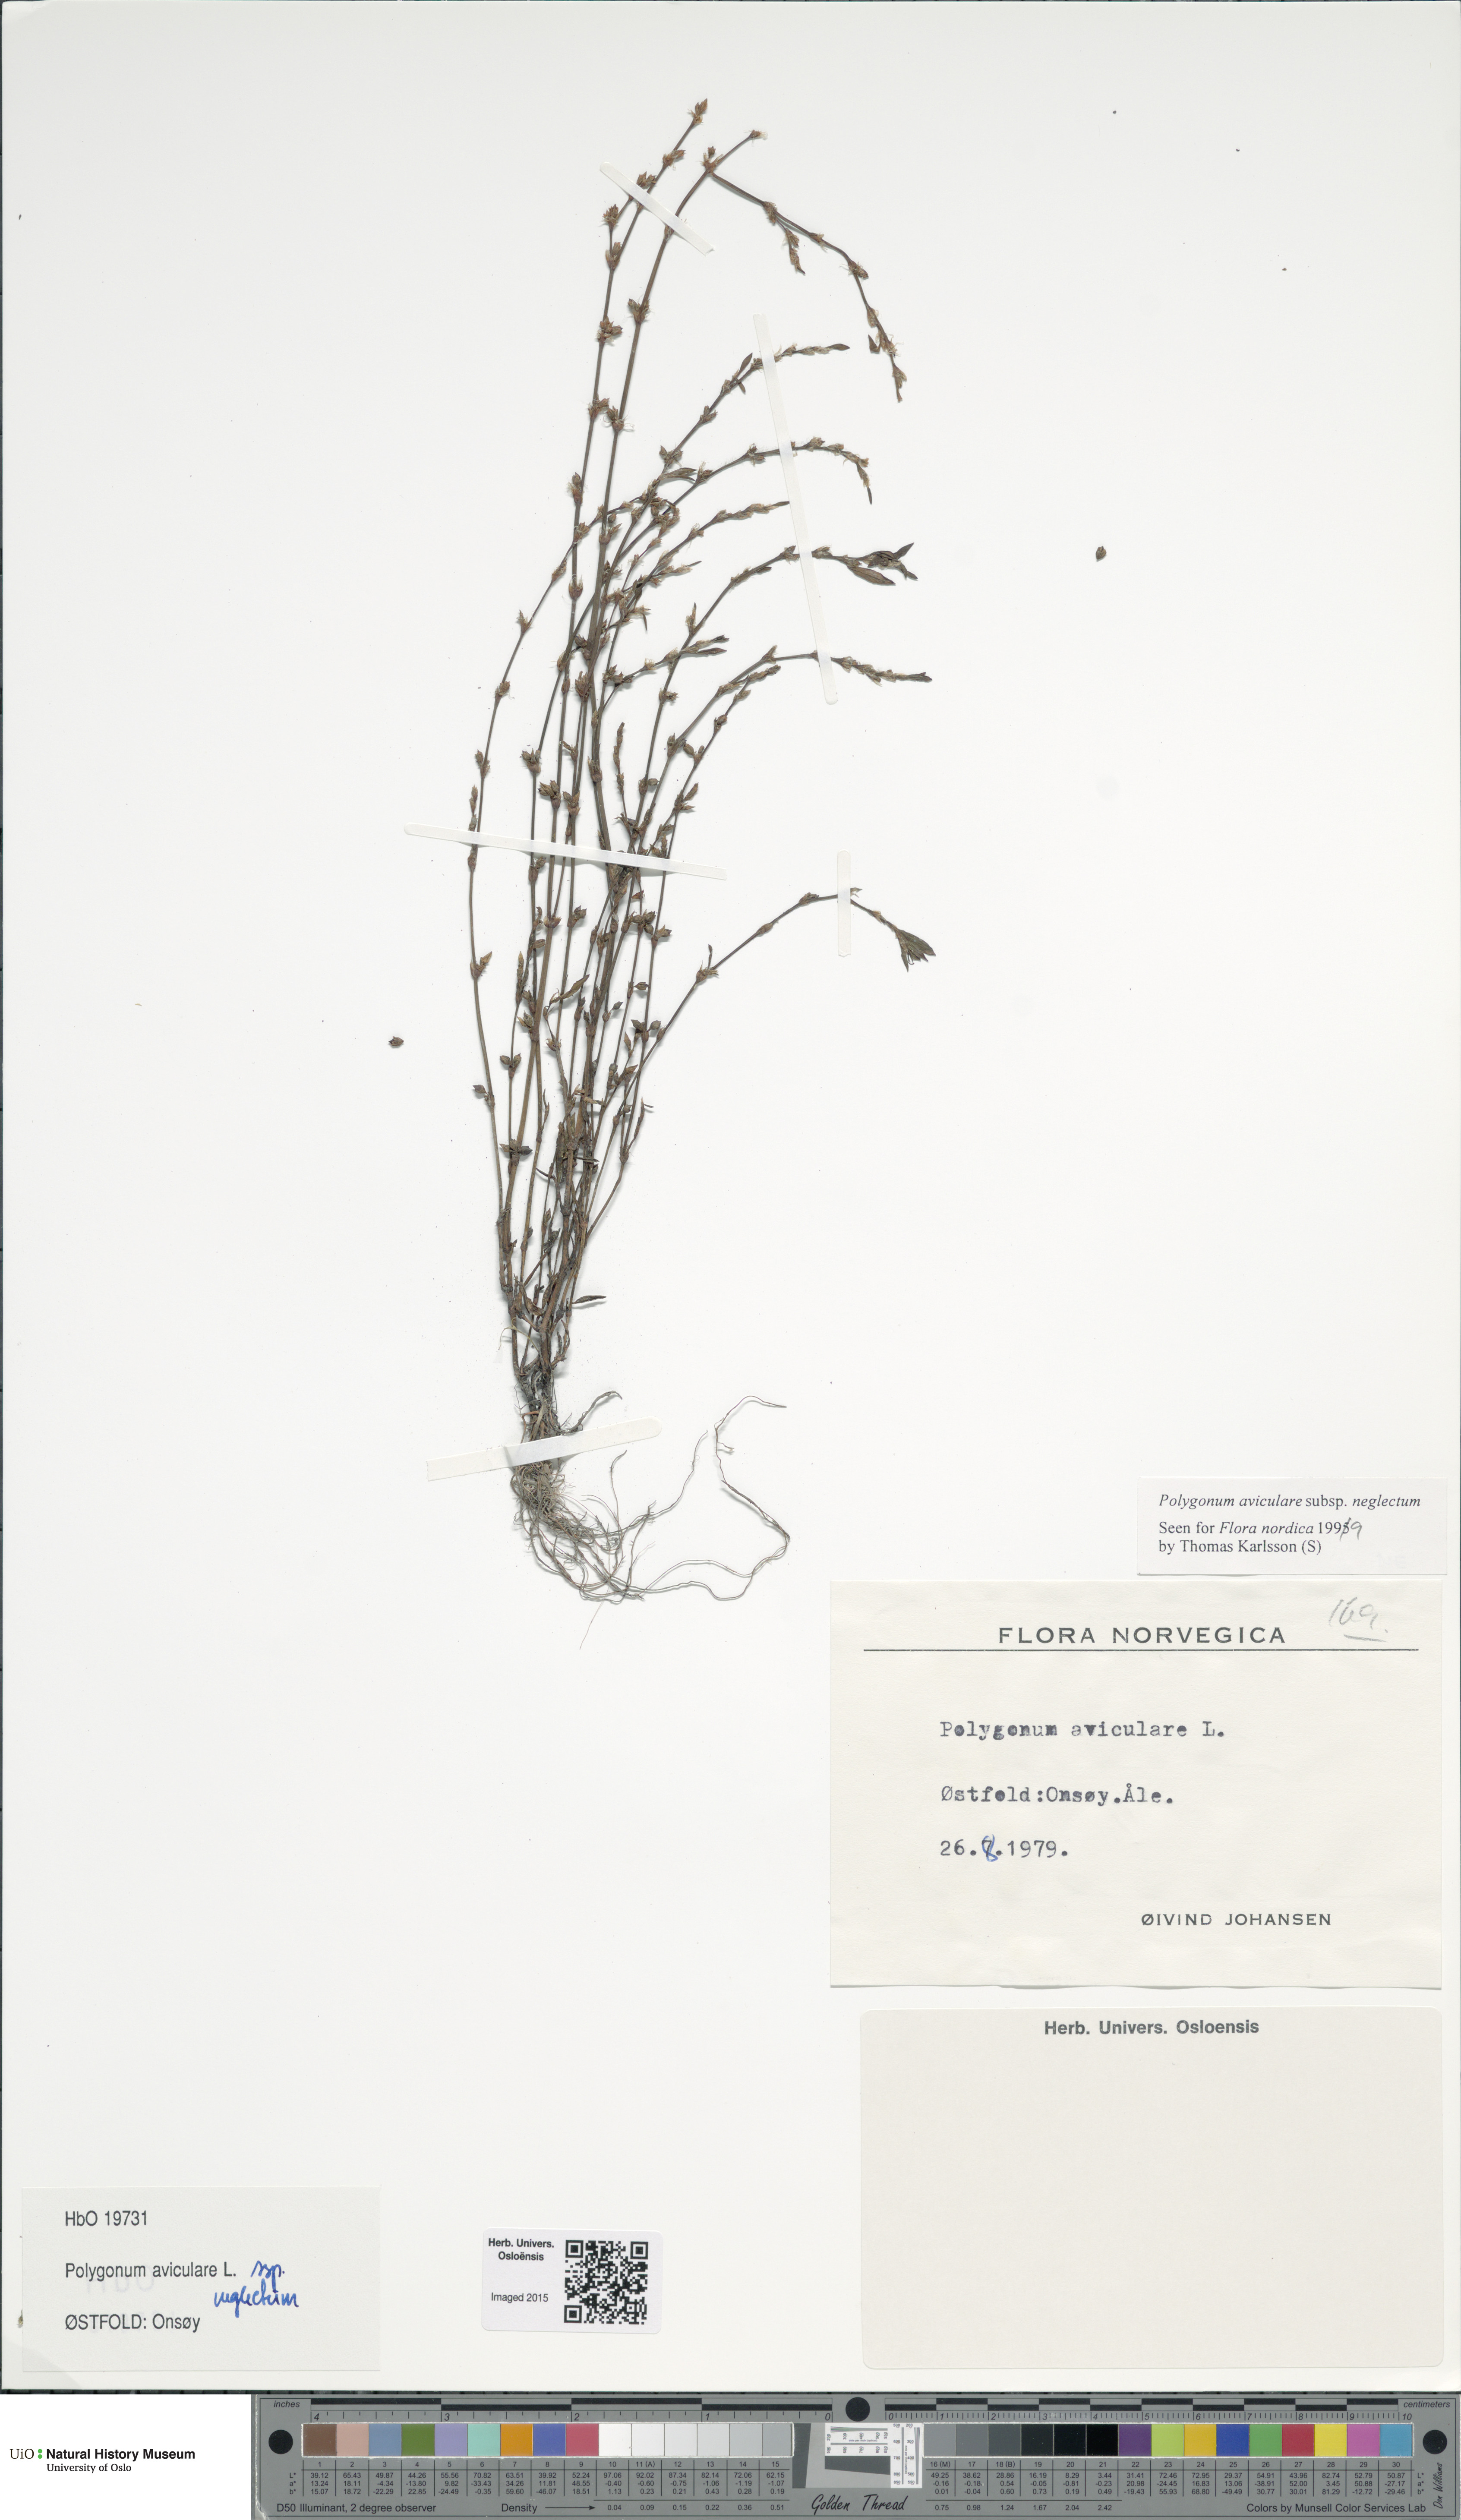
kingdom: Plantae
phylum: Tracheophyta
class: Magnoliopsida
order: Caryophyllales
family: Polygonaceae
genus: Polygonum
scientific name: Polygonum aviculare
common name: Prostrate knotweed
